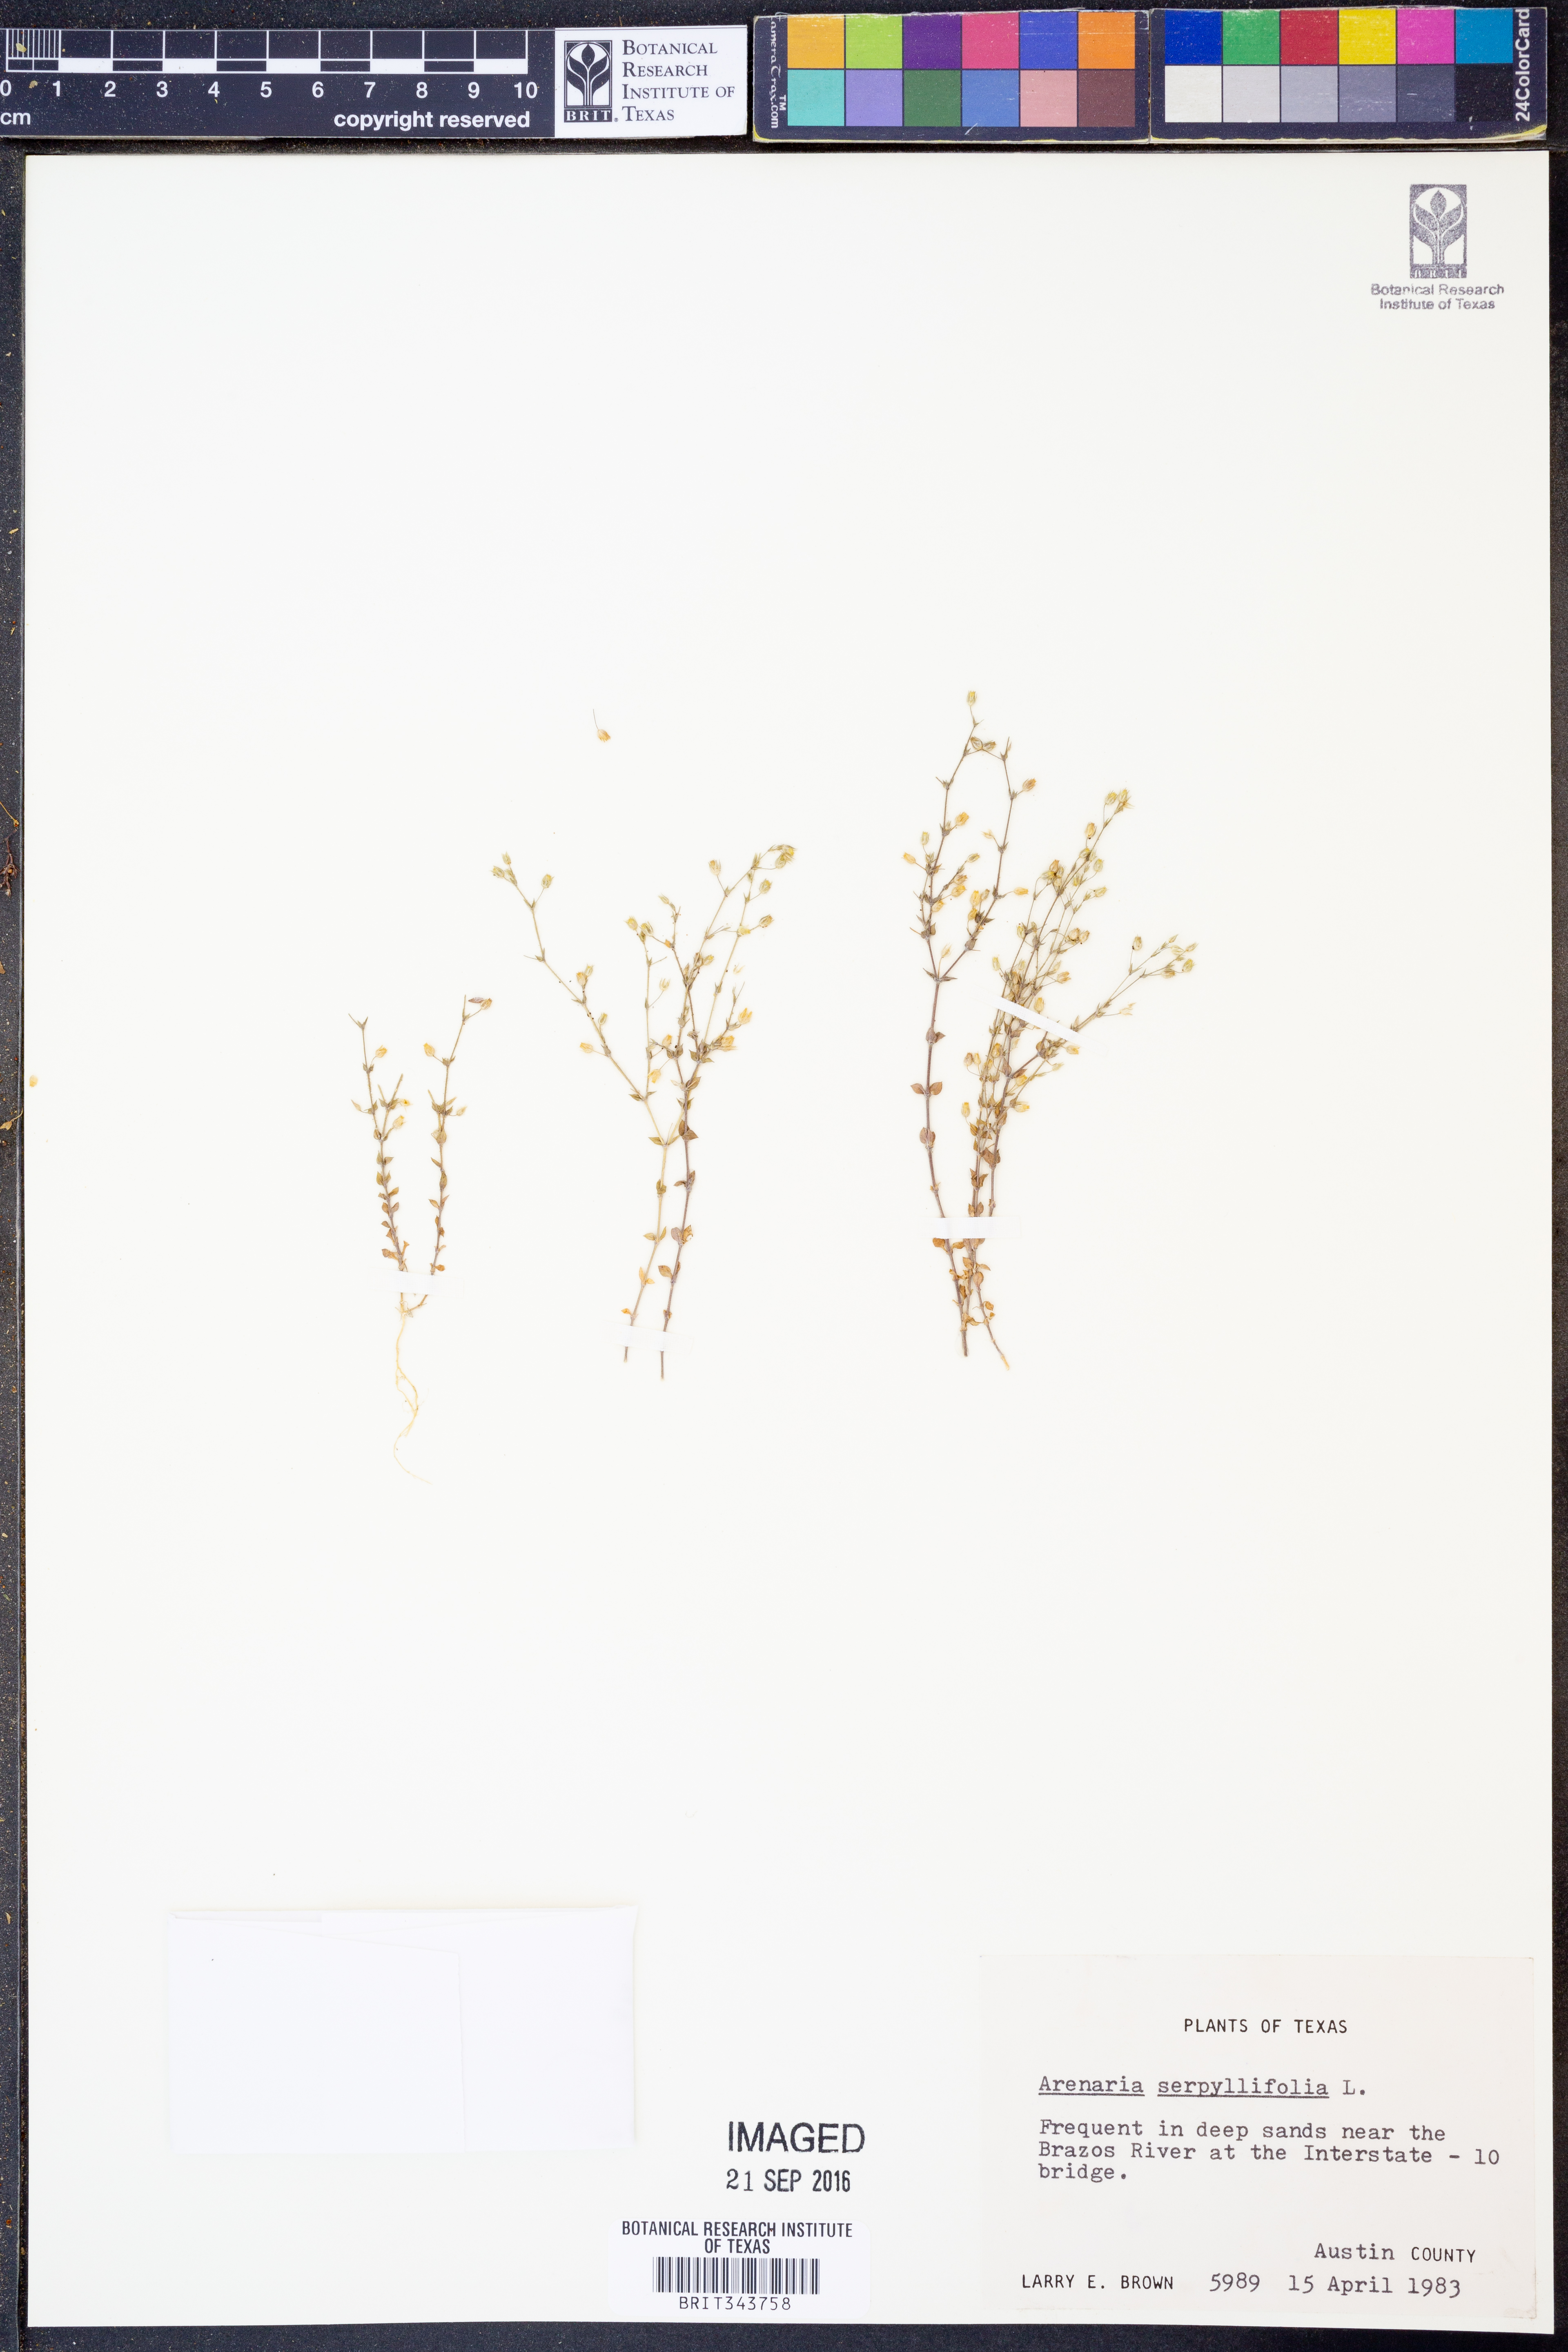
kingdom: Plantae
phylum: Tracheophyta
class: Magnoliopsida
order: Caryophyllales
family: Caryophyllaceae
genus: Arenaria
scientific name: Arenaria serpyllifolia
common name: Thyme-leaved sandwort
